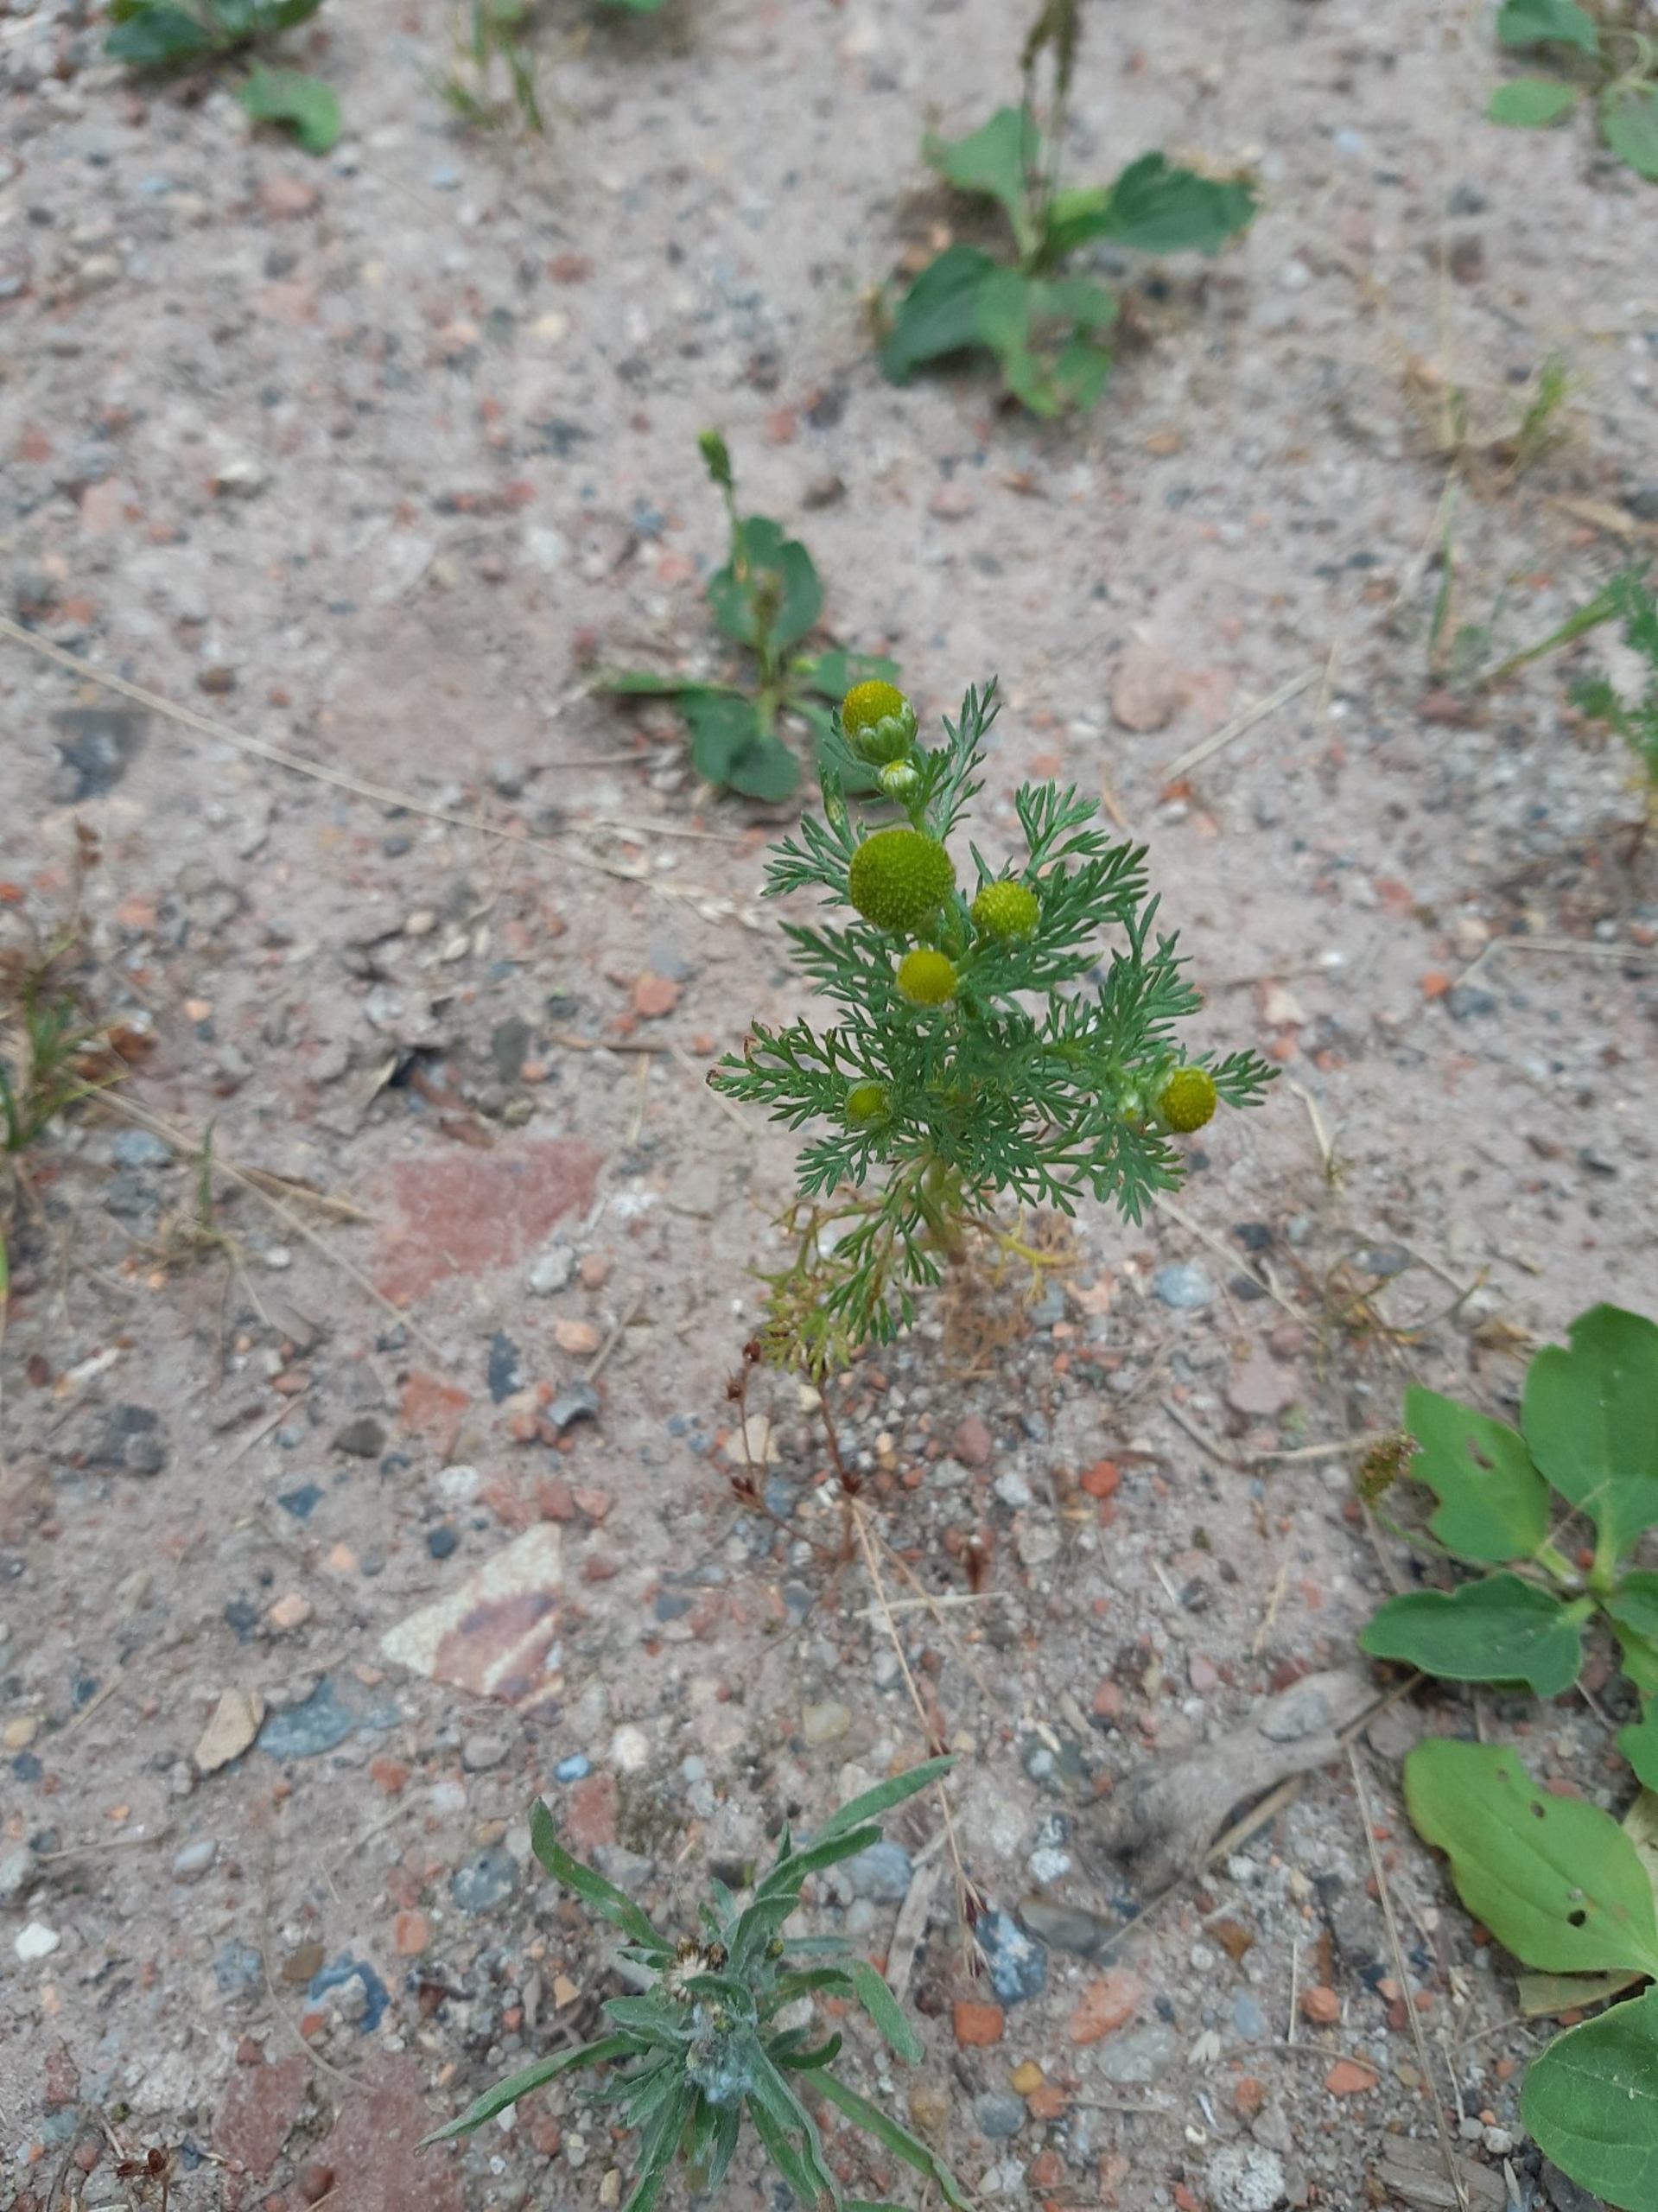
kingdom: Plantae
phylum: Tracheophyta
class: Magnoliopsida
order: Asterales
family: Asteraceae
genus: Matricaria
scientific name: Matricaria discoidea
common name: Skive-kamille
